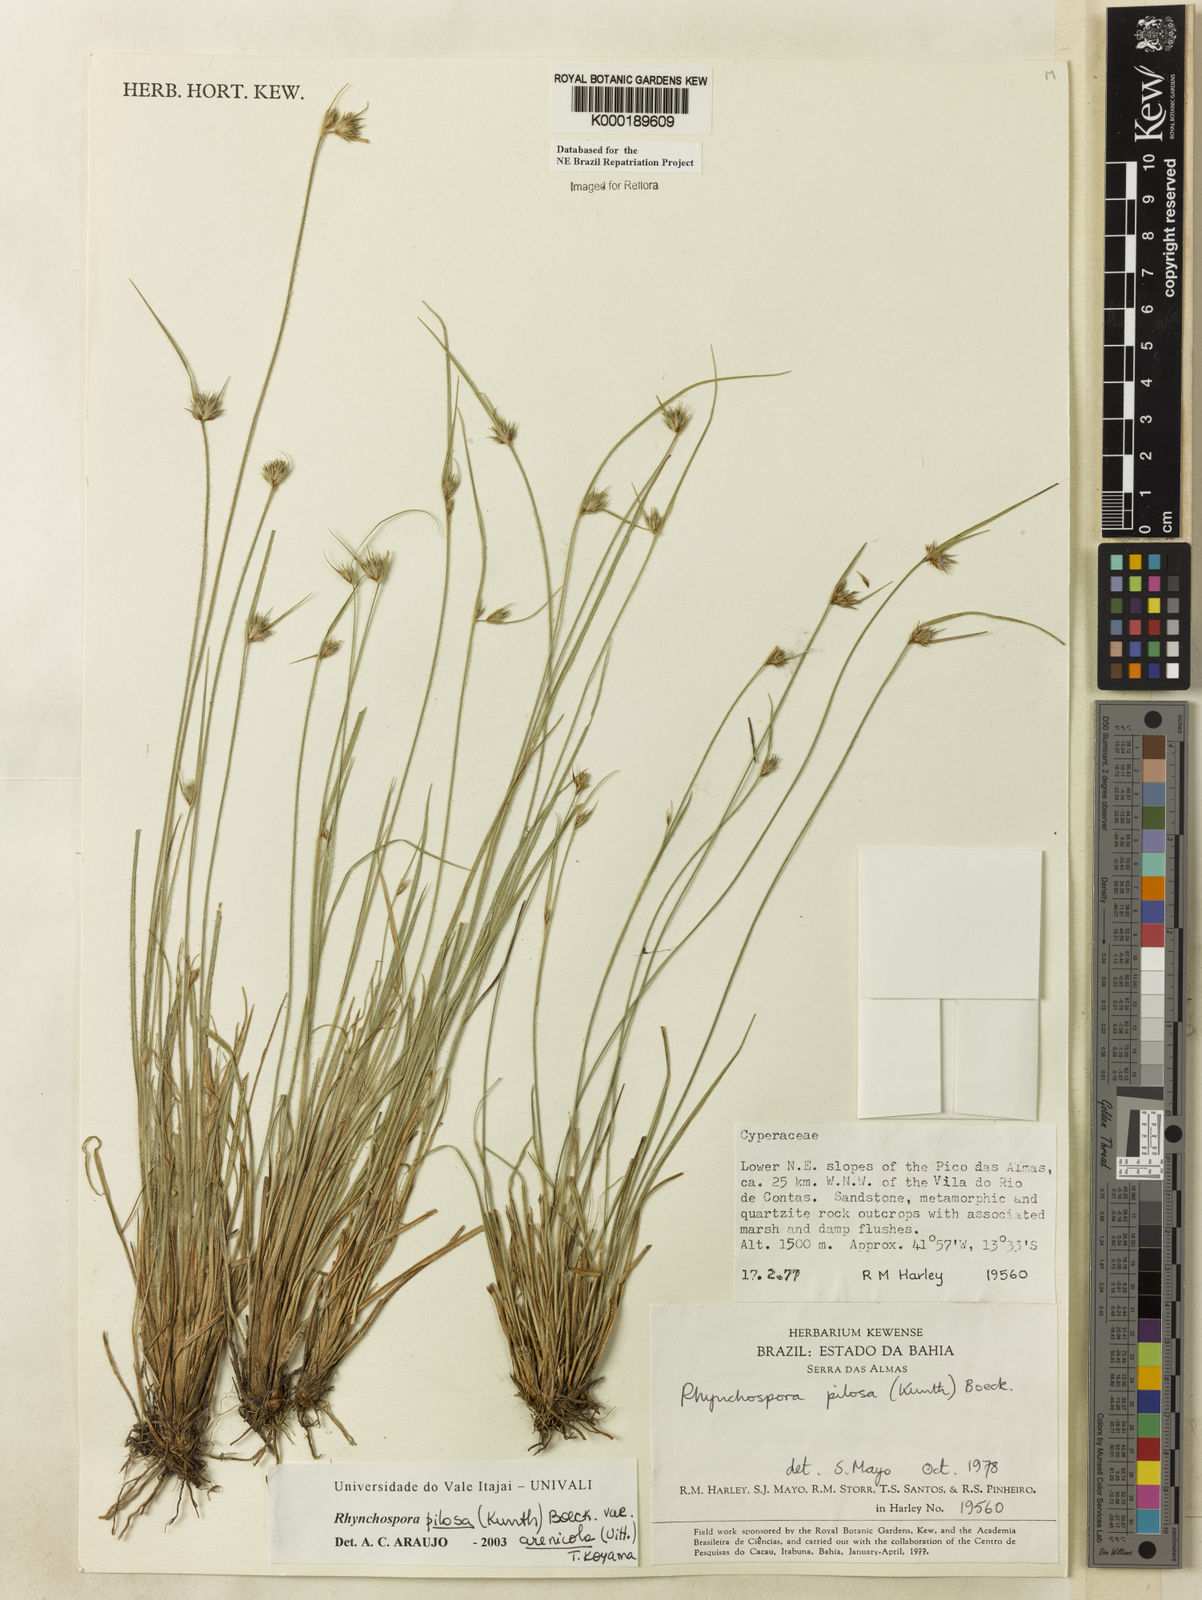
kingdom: Plantae
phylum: Tracheophyta
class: Liliopsida
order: Poales
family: Cyperaceae
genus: Rhynchospora
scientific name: Rhynchospora arenicola
